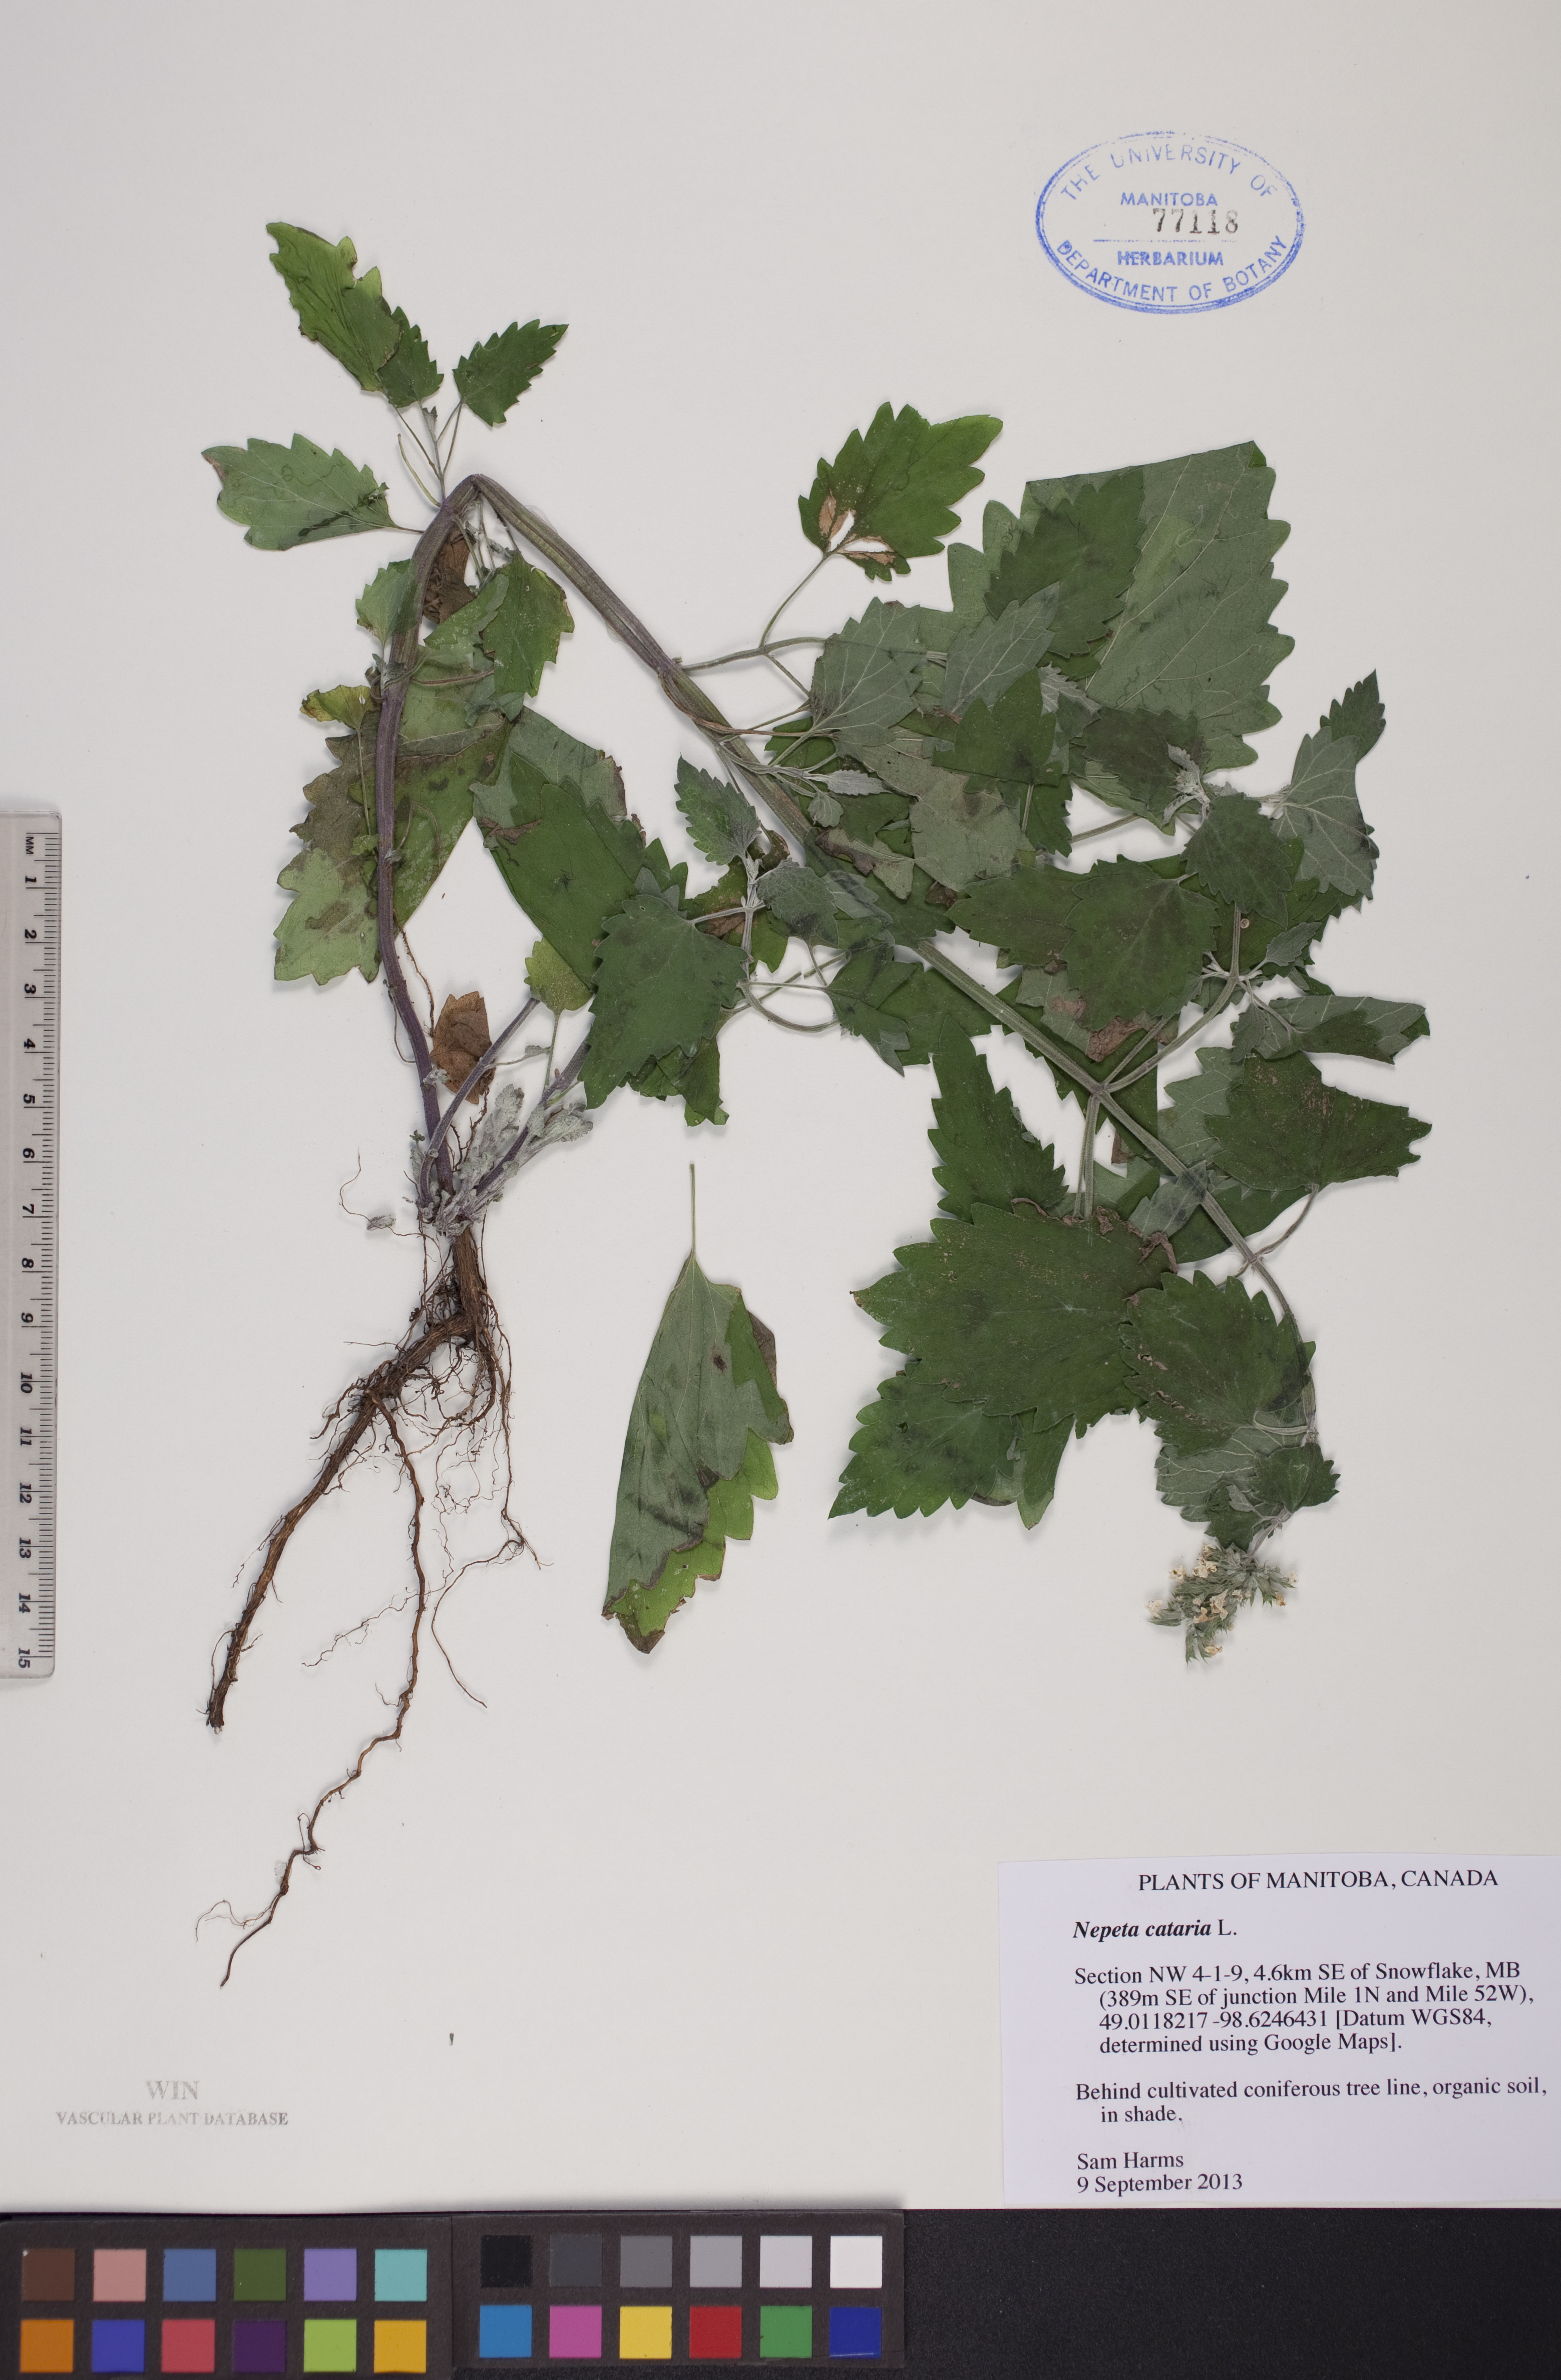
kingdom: Plantae
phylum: Tracheophyta
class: Magnoliopsida
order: Lamiales
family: Lamiaceae
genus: Nepeta
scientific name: Nepeta cataria
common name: Catnip
